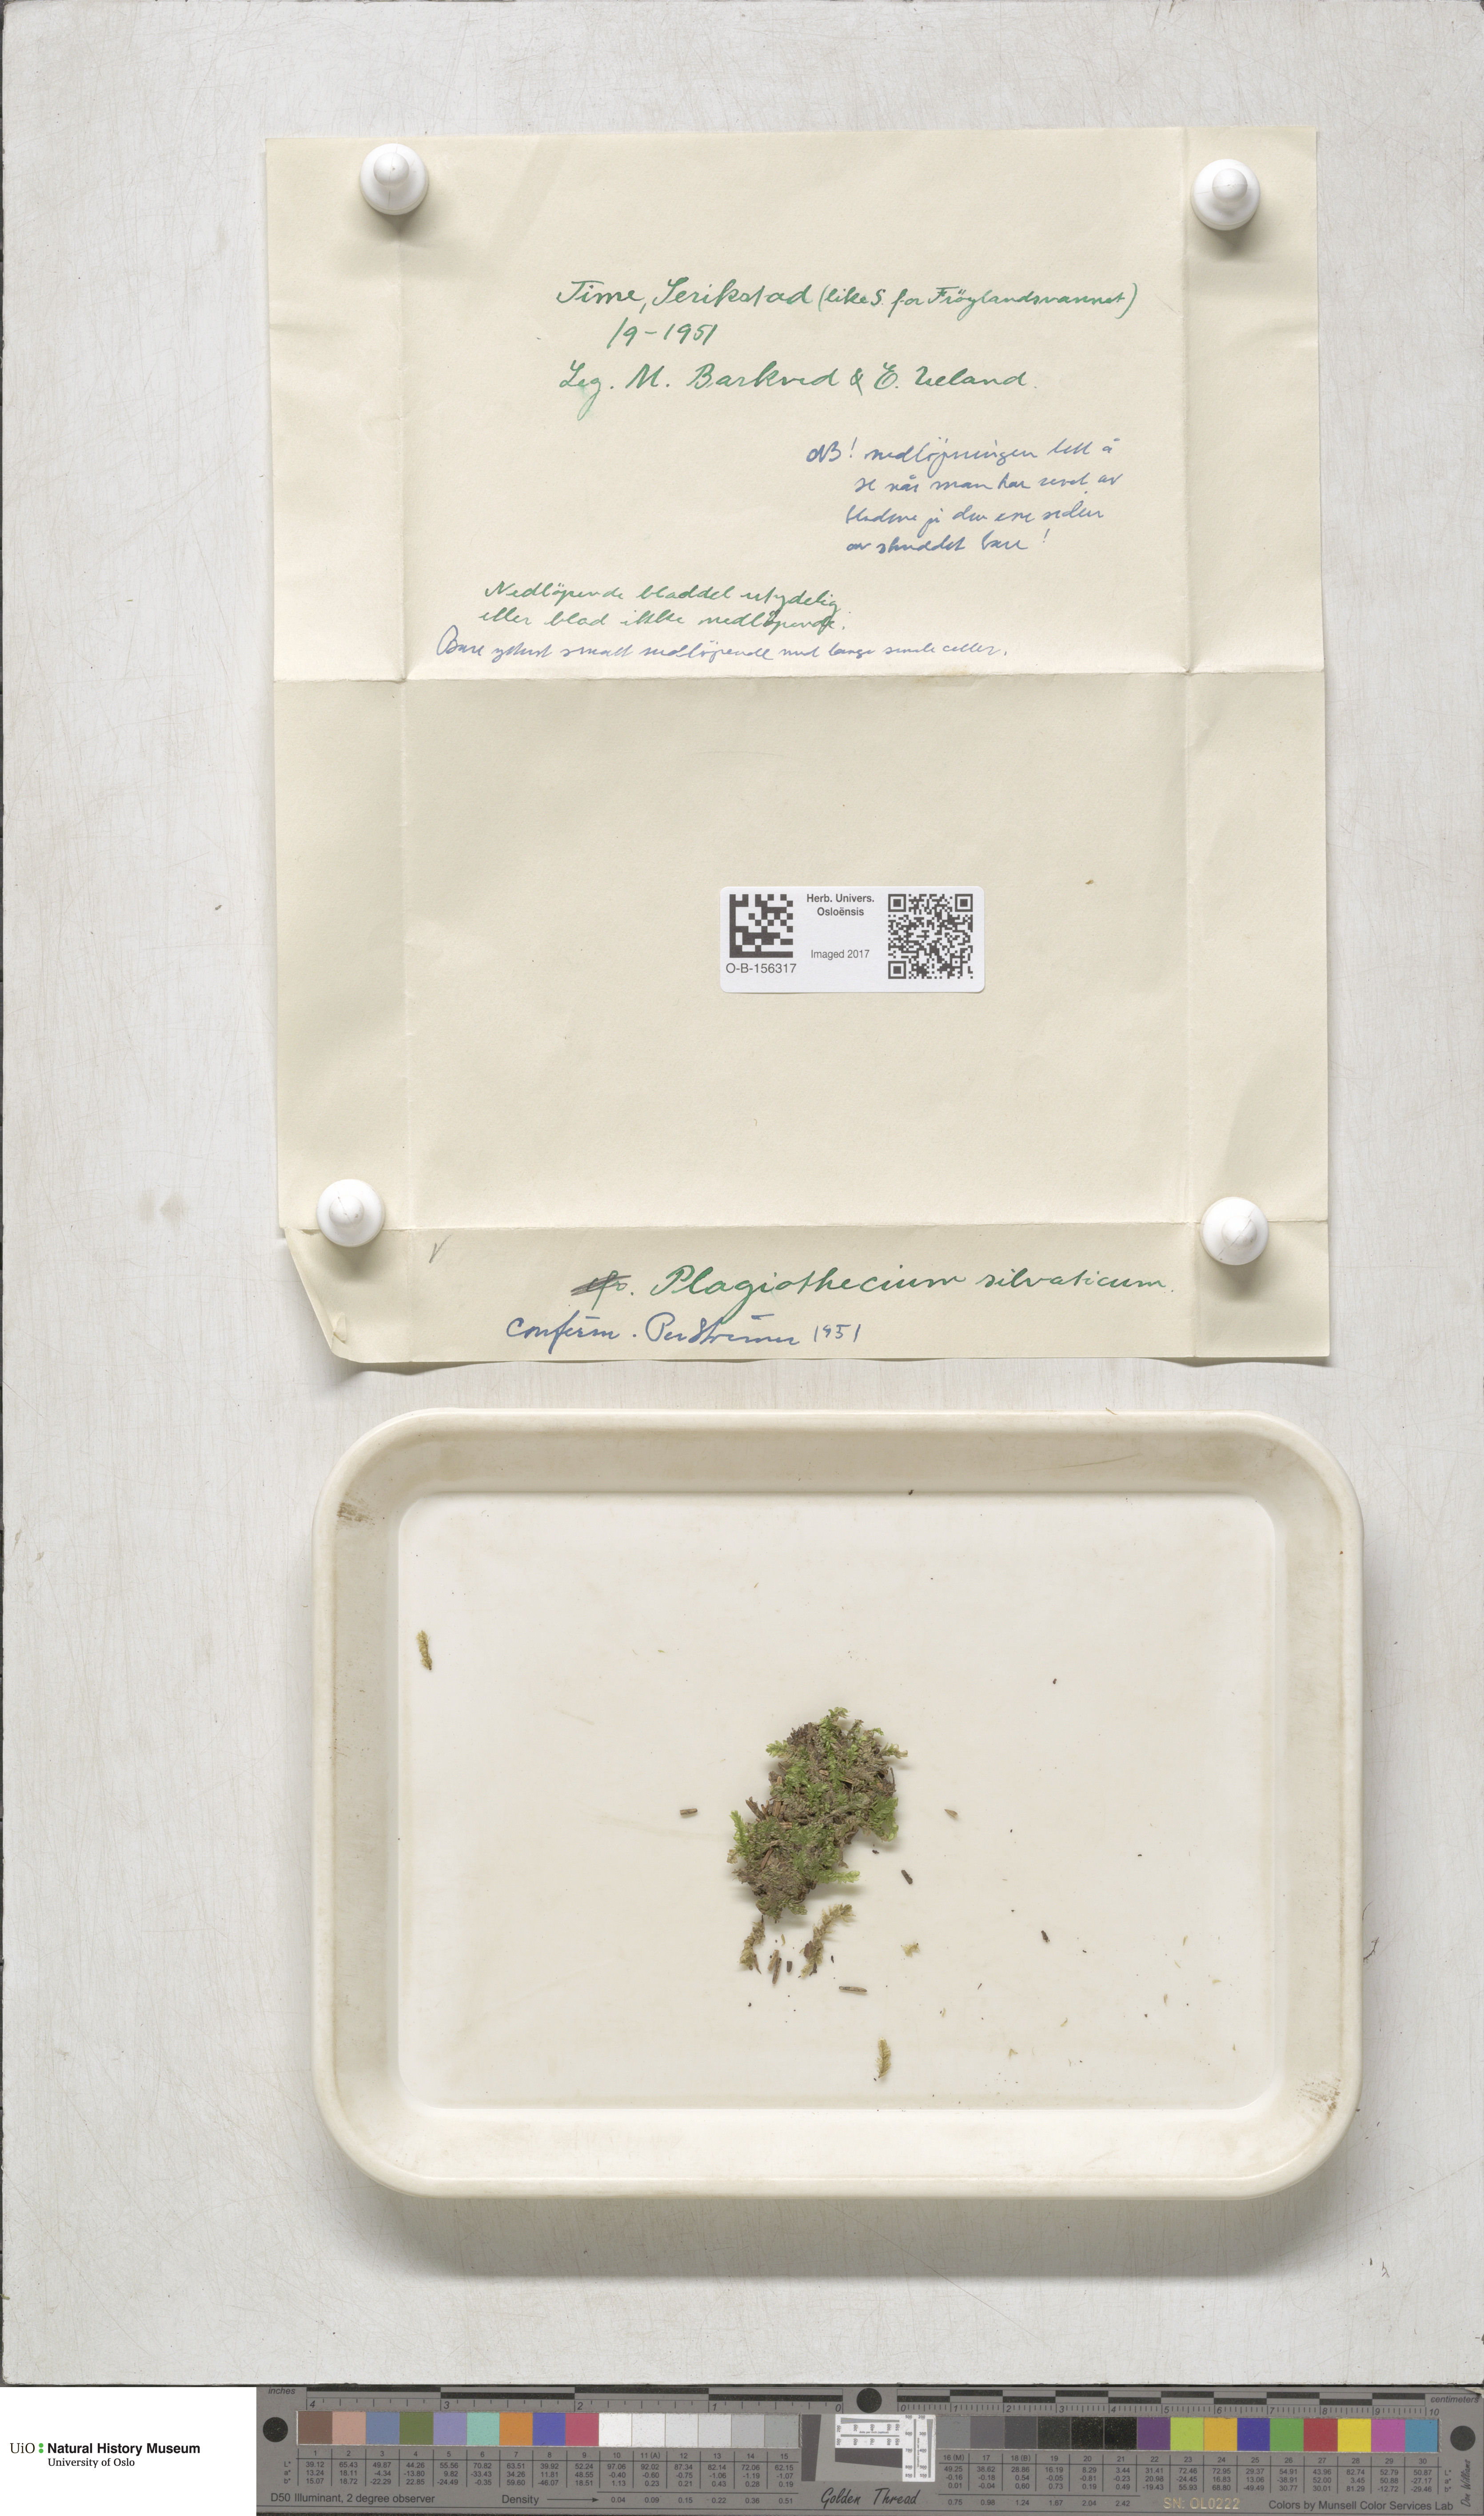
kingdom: Plantae
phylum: Bryophyta
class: Bryopsida
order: Hypnales
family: Plagiotheciaceae
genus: Plagiothecium
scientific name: Plagiothecium nemorale
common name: Woodsy silk-moss
